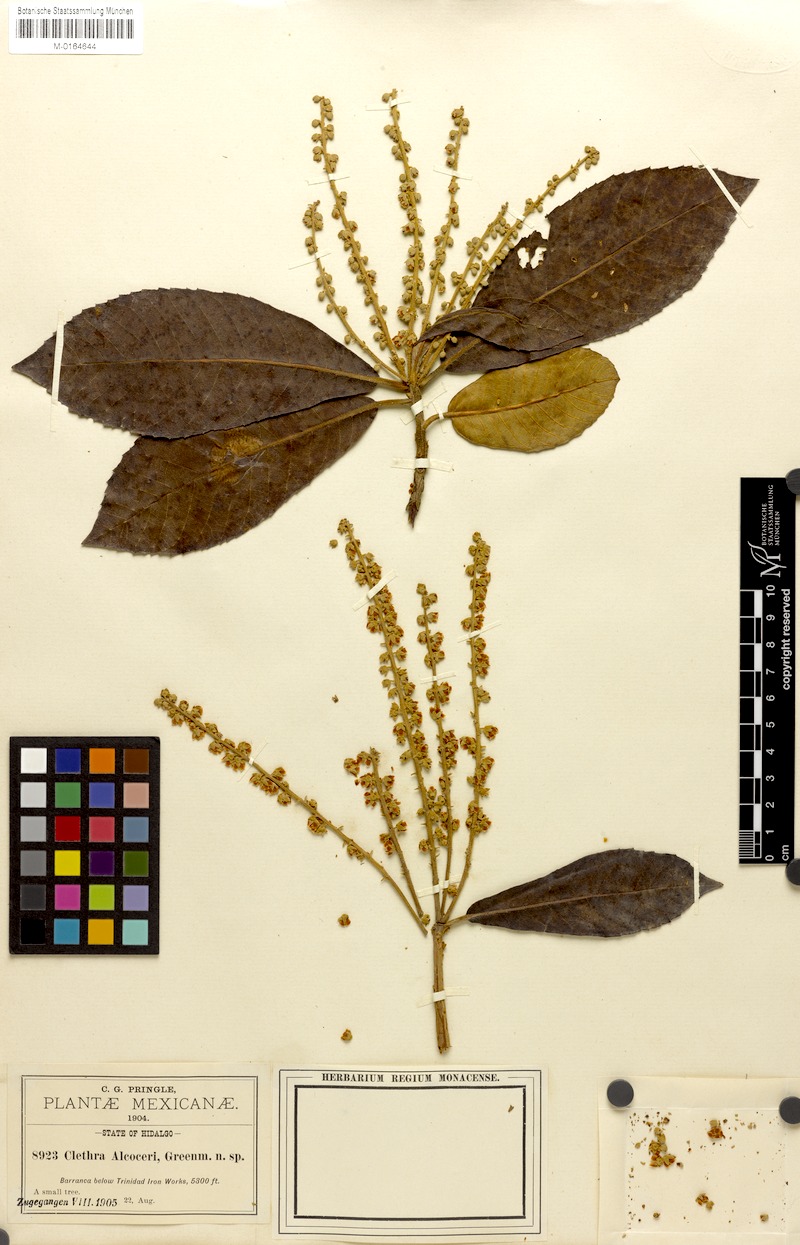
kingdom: Plantae
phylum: Tracheophyta
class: Magnoliopsida
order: Ericales
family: Clethraceae
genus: Clethra
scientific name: Clethra alcoceri
